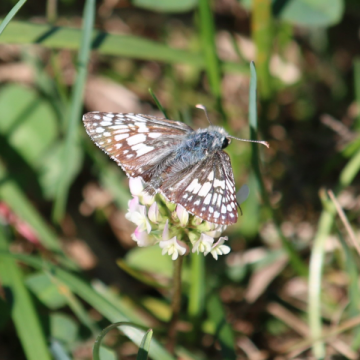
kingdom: Animalia
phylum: Arthropoda
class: Insecta
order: Lepidoptera
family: Hesperiidae
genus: Pyrgus
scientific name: Pyrgus communis
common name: Common Checkered-Skipper
